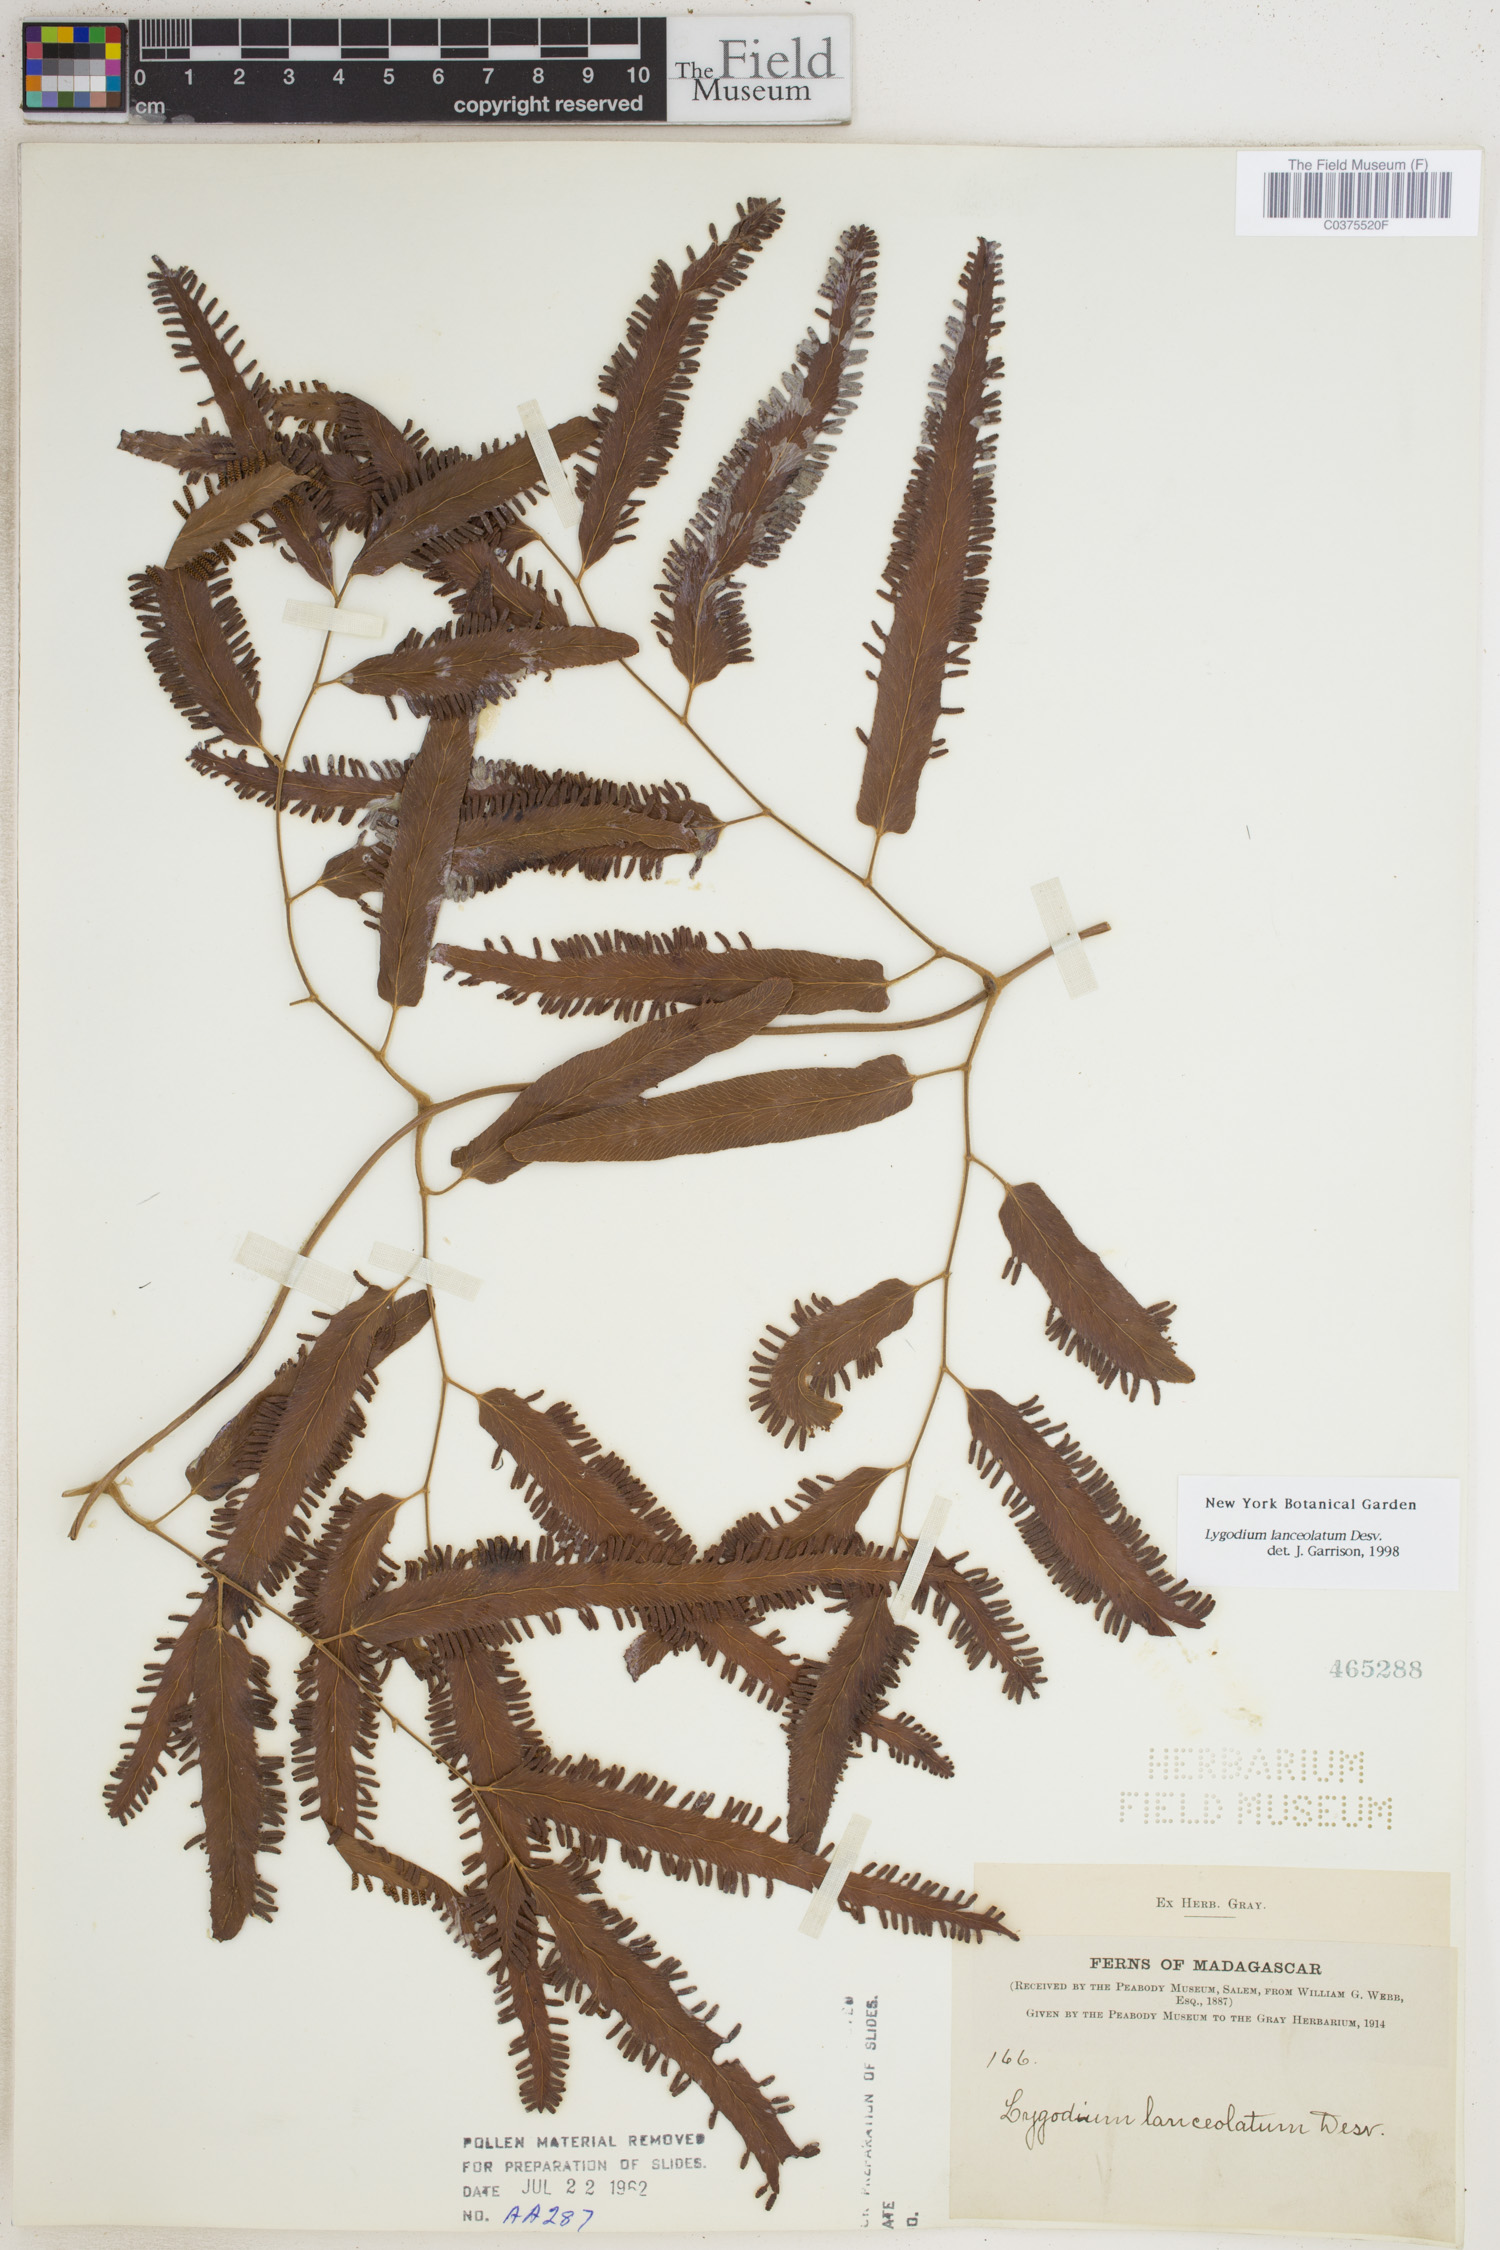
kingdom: Plantae
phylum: Tracheophyta
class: Polypodiopsida
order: Schizaeales
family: Lygodiaceae
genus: Lygodium
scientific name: Lygodium lanceolatum
